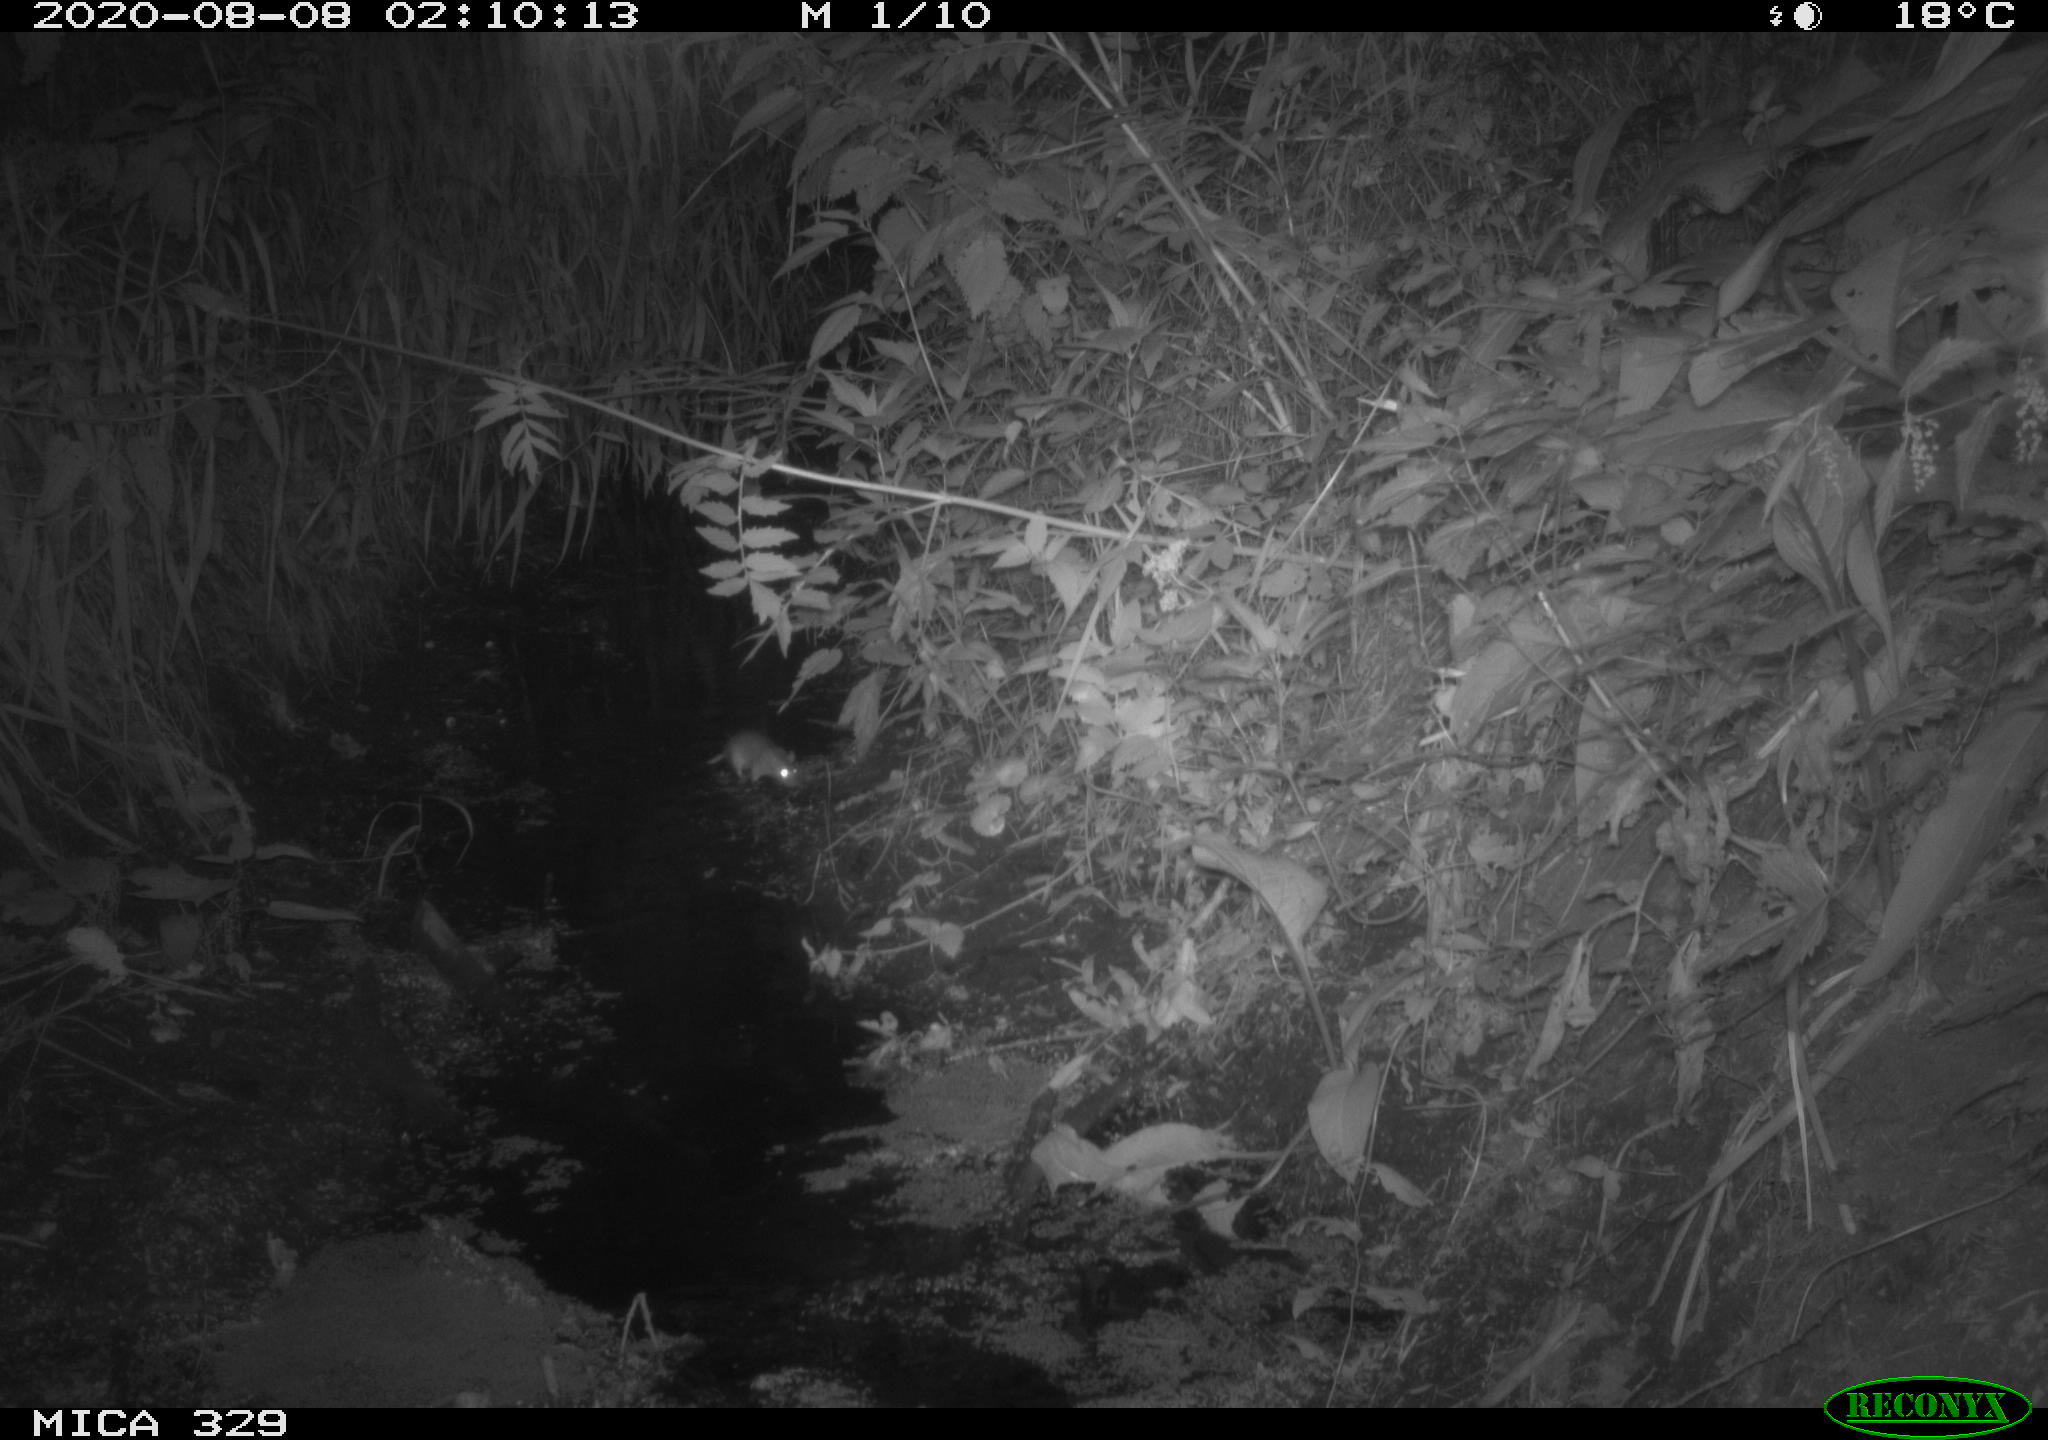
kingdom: Animalia
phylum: Chordata
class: Mammalia
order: Rodentia
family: Muridae
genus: Rattus
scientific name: Rattus norvegicus
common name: Brown rat
